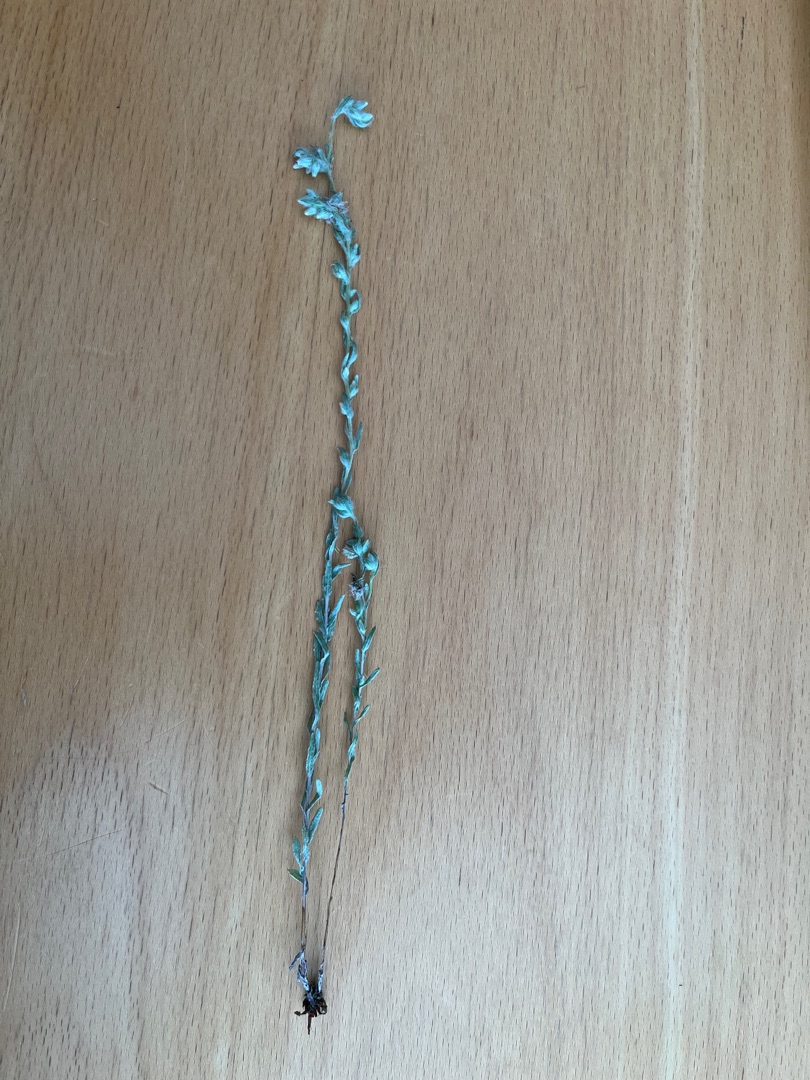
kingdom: Plantae
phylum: Tracheophyta
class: Magnoliopsida
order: Asterales
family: Asteraceae
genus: Filago
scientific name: Filago arvensis
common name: Ager-museurt
